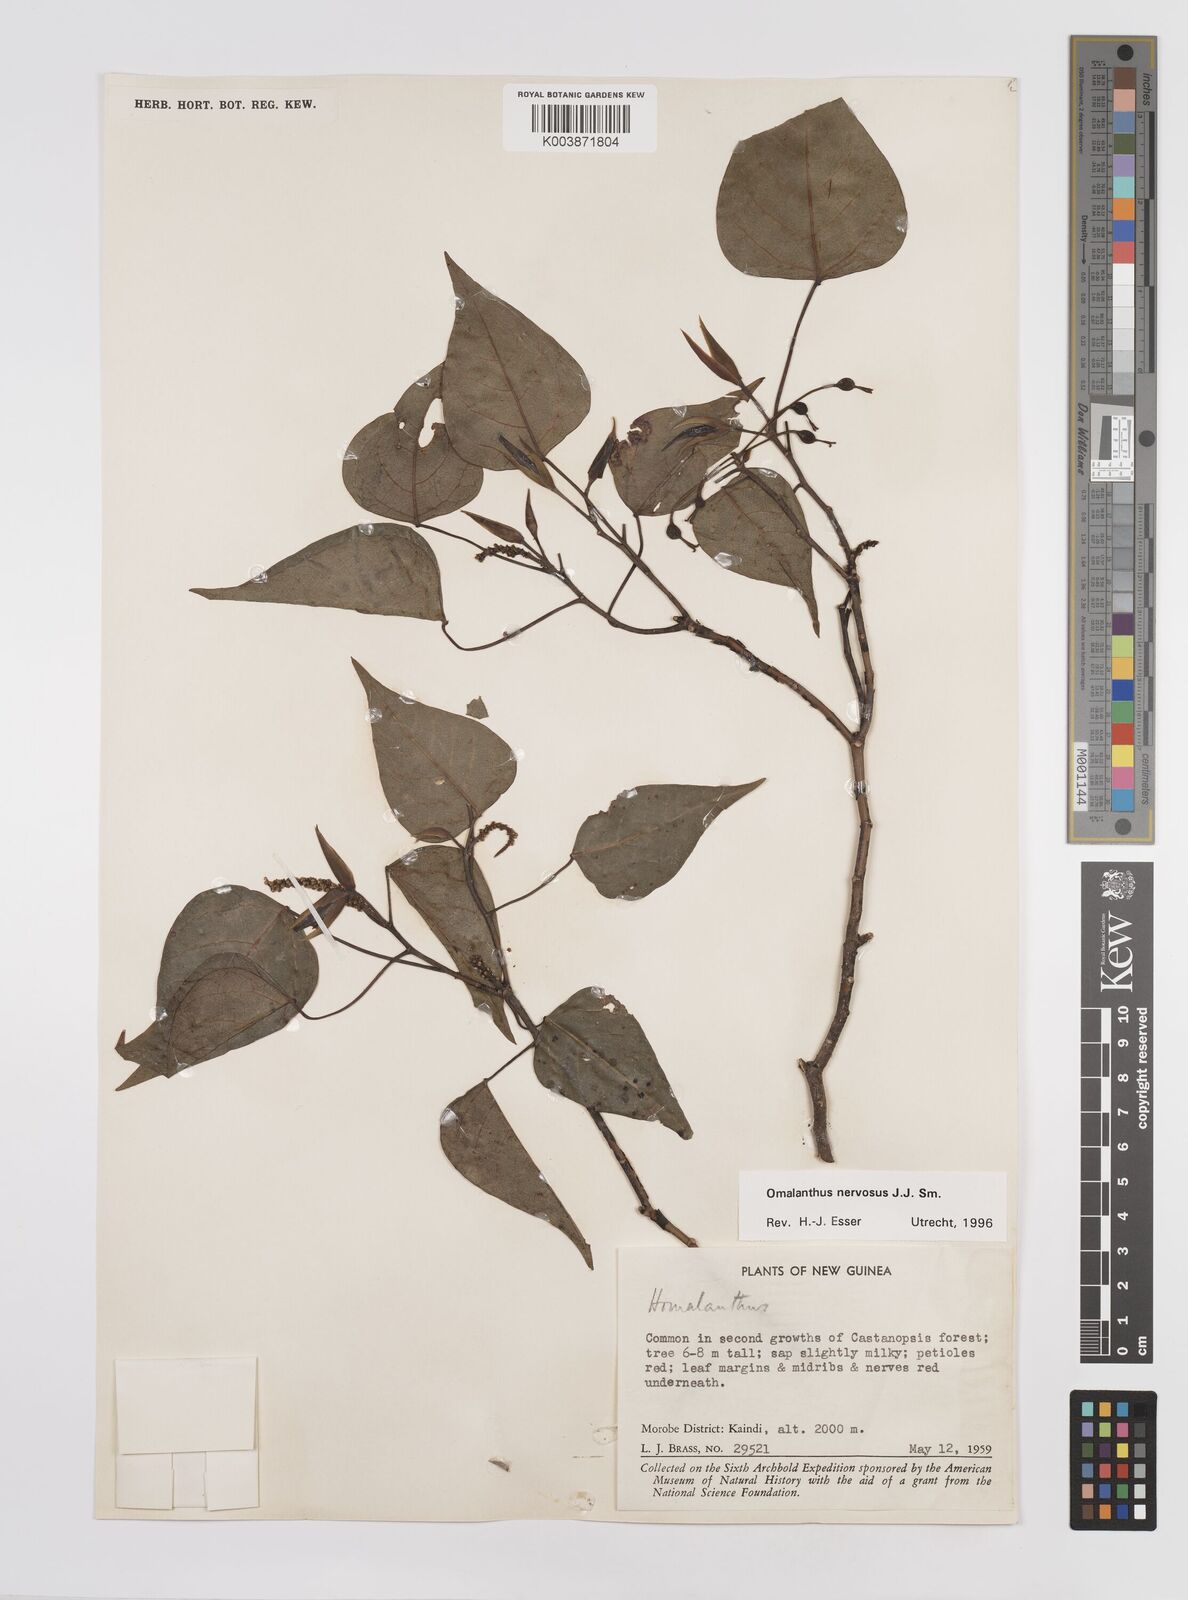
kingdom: Plantae
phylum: Tracheophyta
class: Magnoliopsida
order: Malpighiales
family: Euphorbiaceae
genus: Homalanthus
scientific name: Homalanthus nervosus
